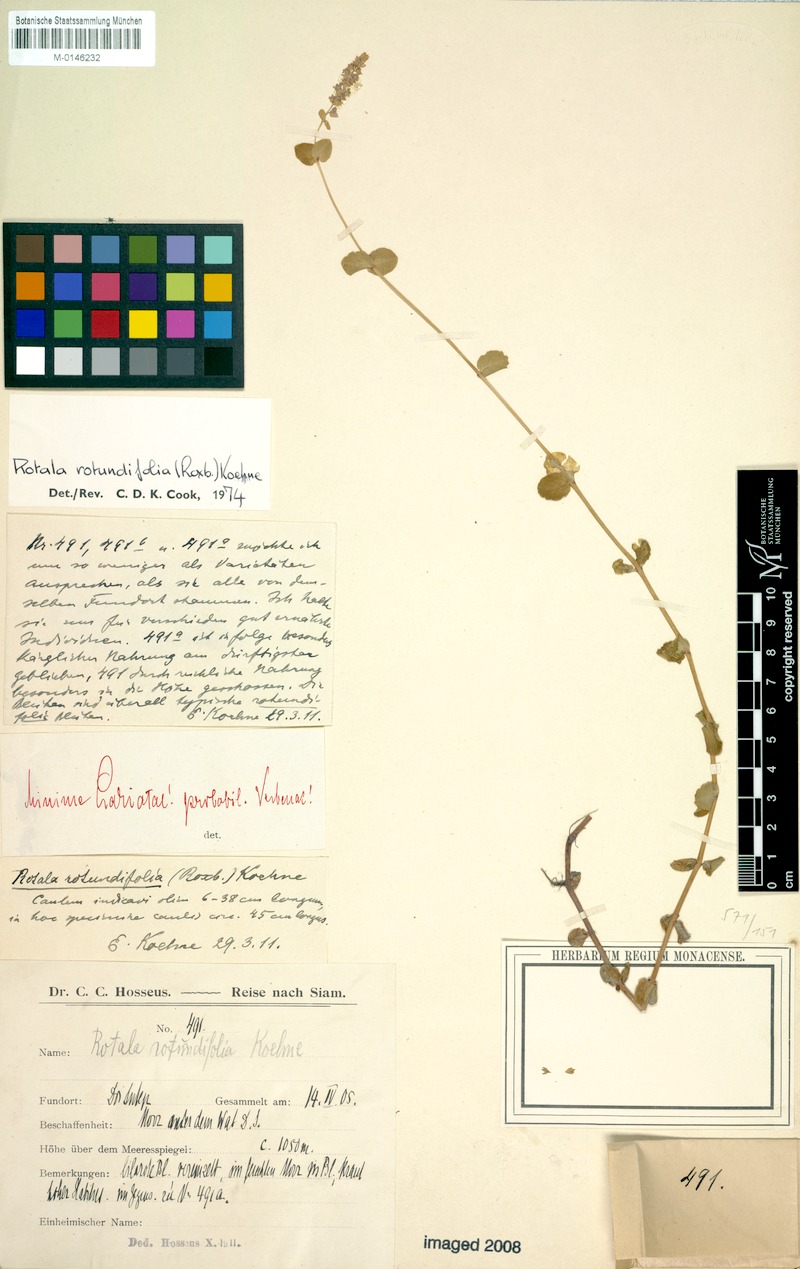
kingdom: Plantae
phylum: Tracheophyta
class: Magnoliopsida
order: Myrtales
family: Lythraceae
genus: Rotala
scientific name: Rotala rotundifolia
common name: Roundleaf toothcup
